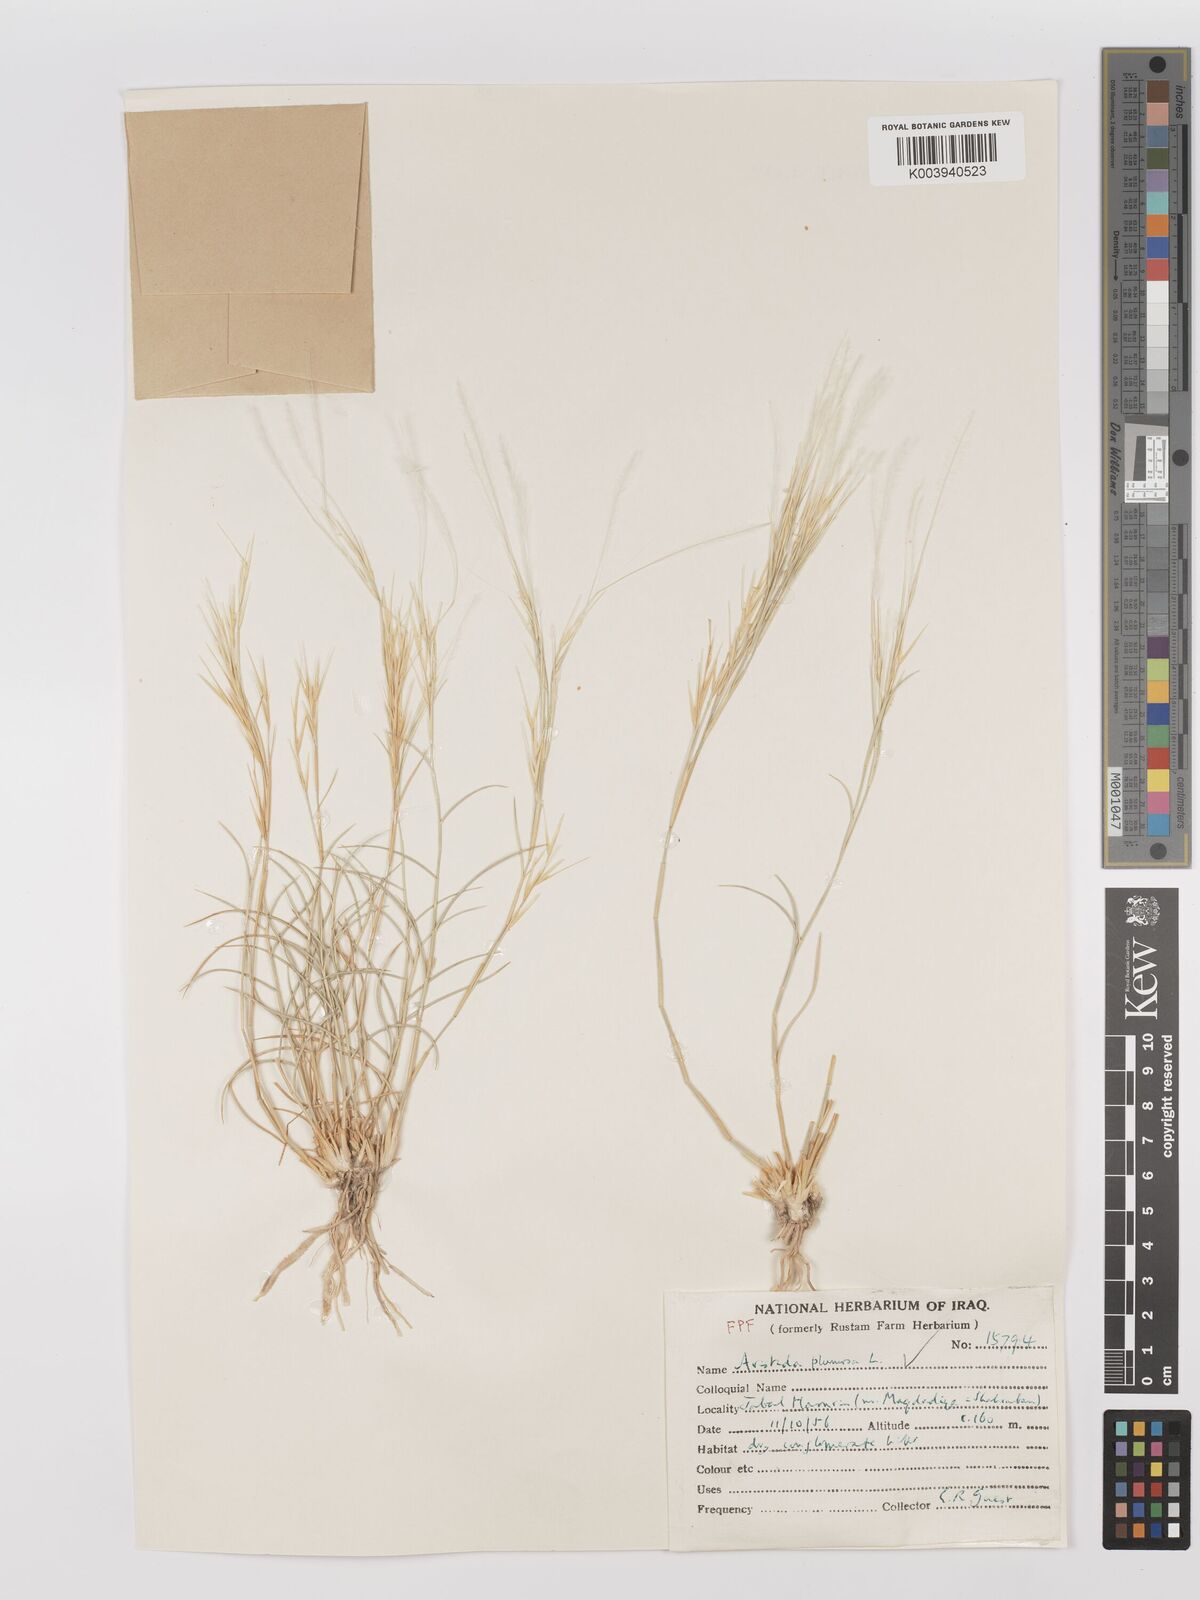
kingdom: Plantae
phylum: Tracheophyta
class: Liliopsida
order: Poales
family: Poaceae
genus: Stipagrostis
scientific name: Stipagrostis plumosa
